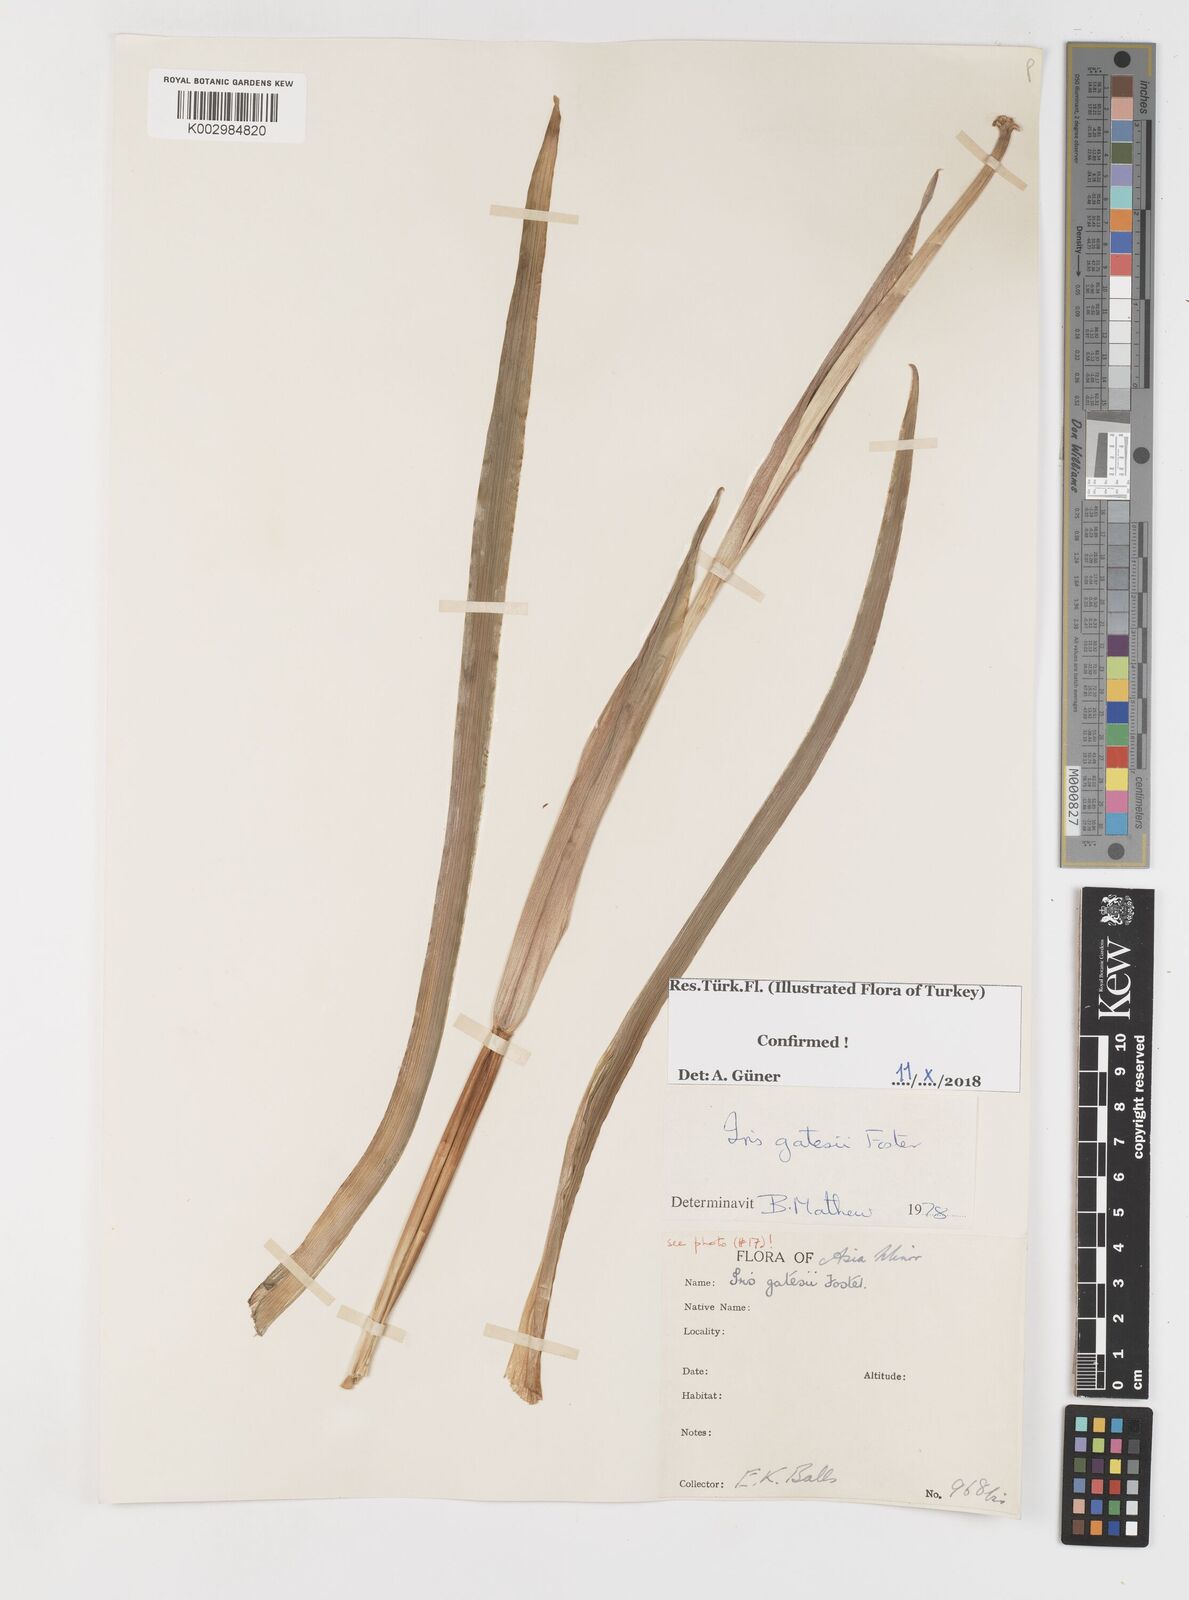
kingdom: Plantae
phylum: Tracheophyta
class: Liliopsida
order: Asparagales
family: Iridaceae
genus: Iris
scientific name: Iris gatesii
